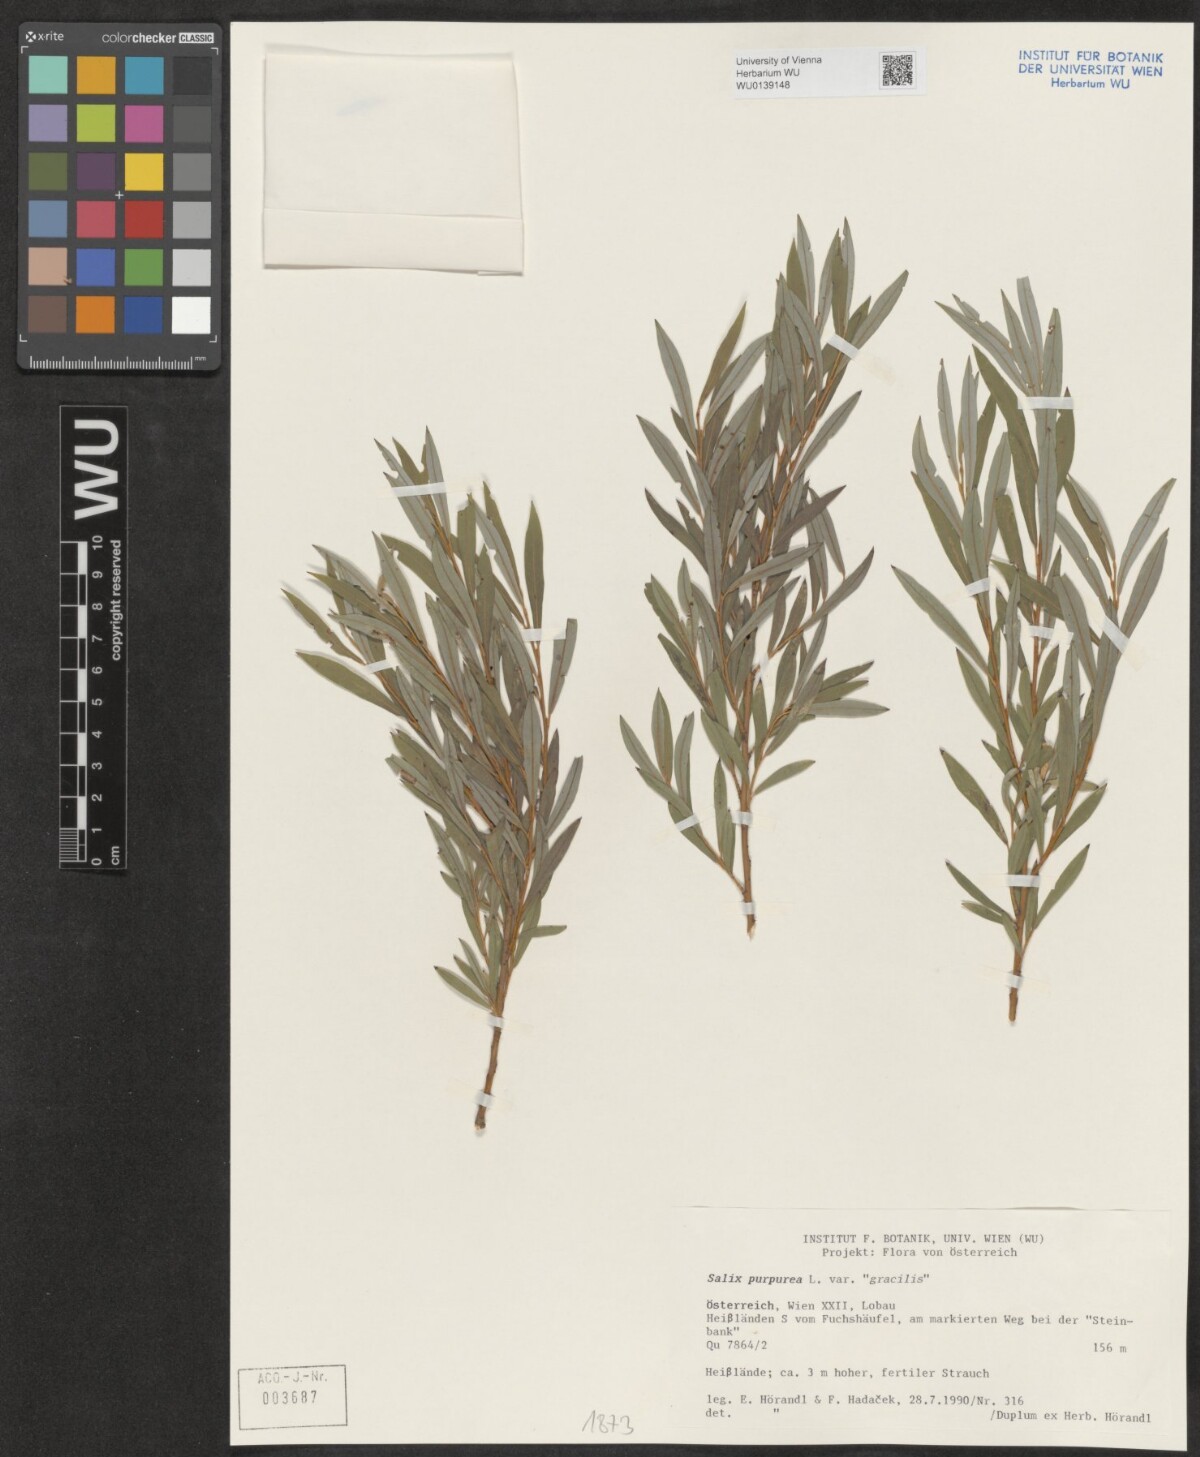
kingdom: Plantae
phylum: Tracheophyta
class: Magnoliopsida
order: Malpighiales
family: Salicaceae
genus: Salix
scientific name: Salix purpurea
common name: Purple willow
